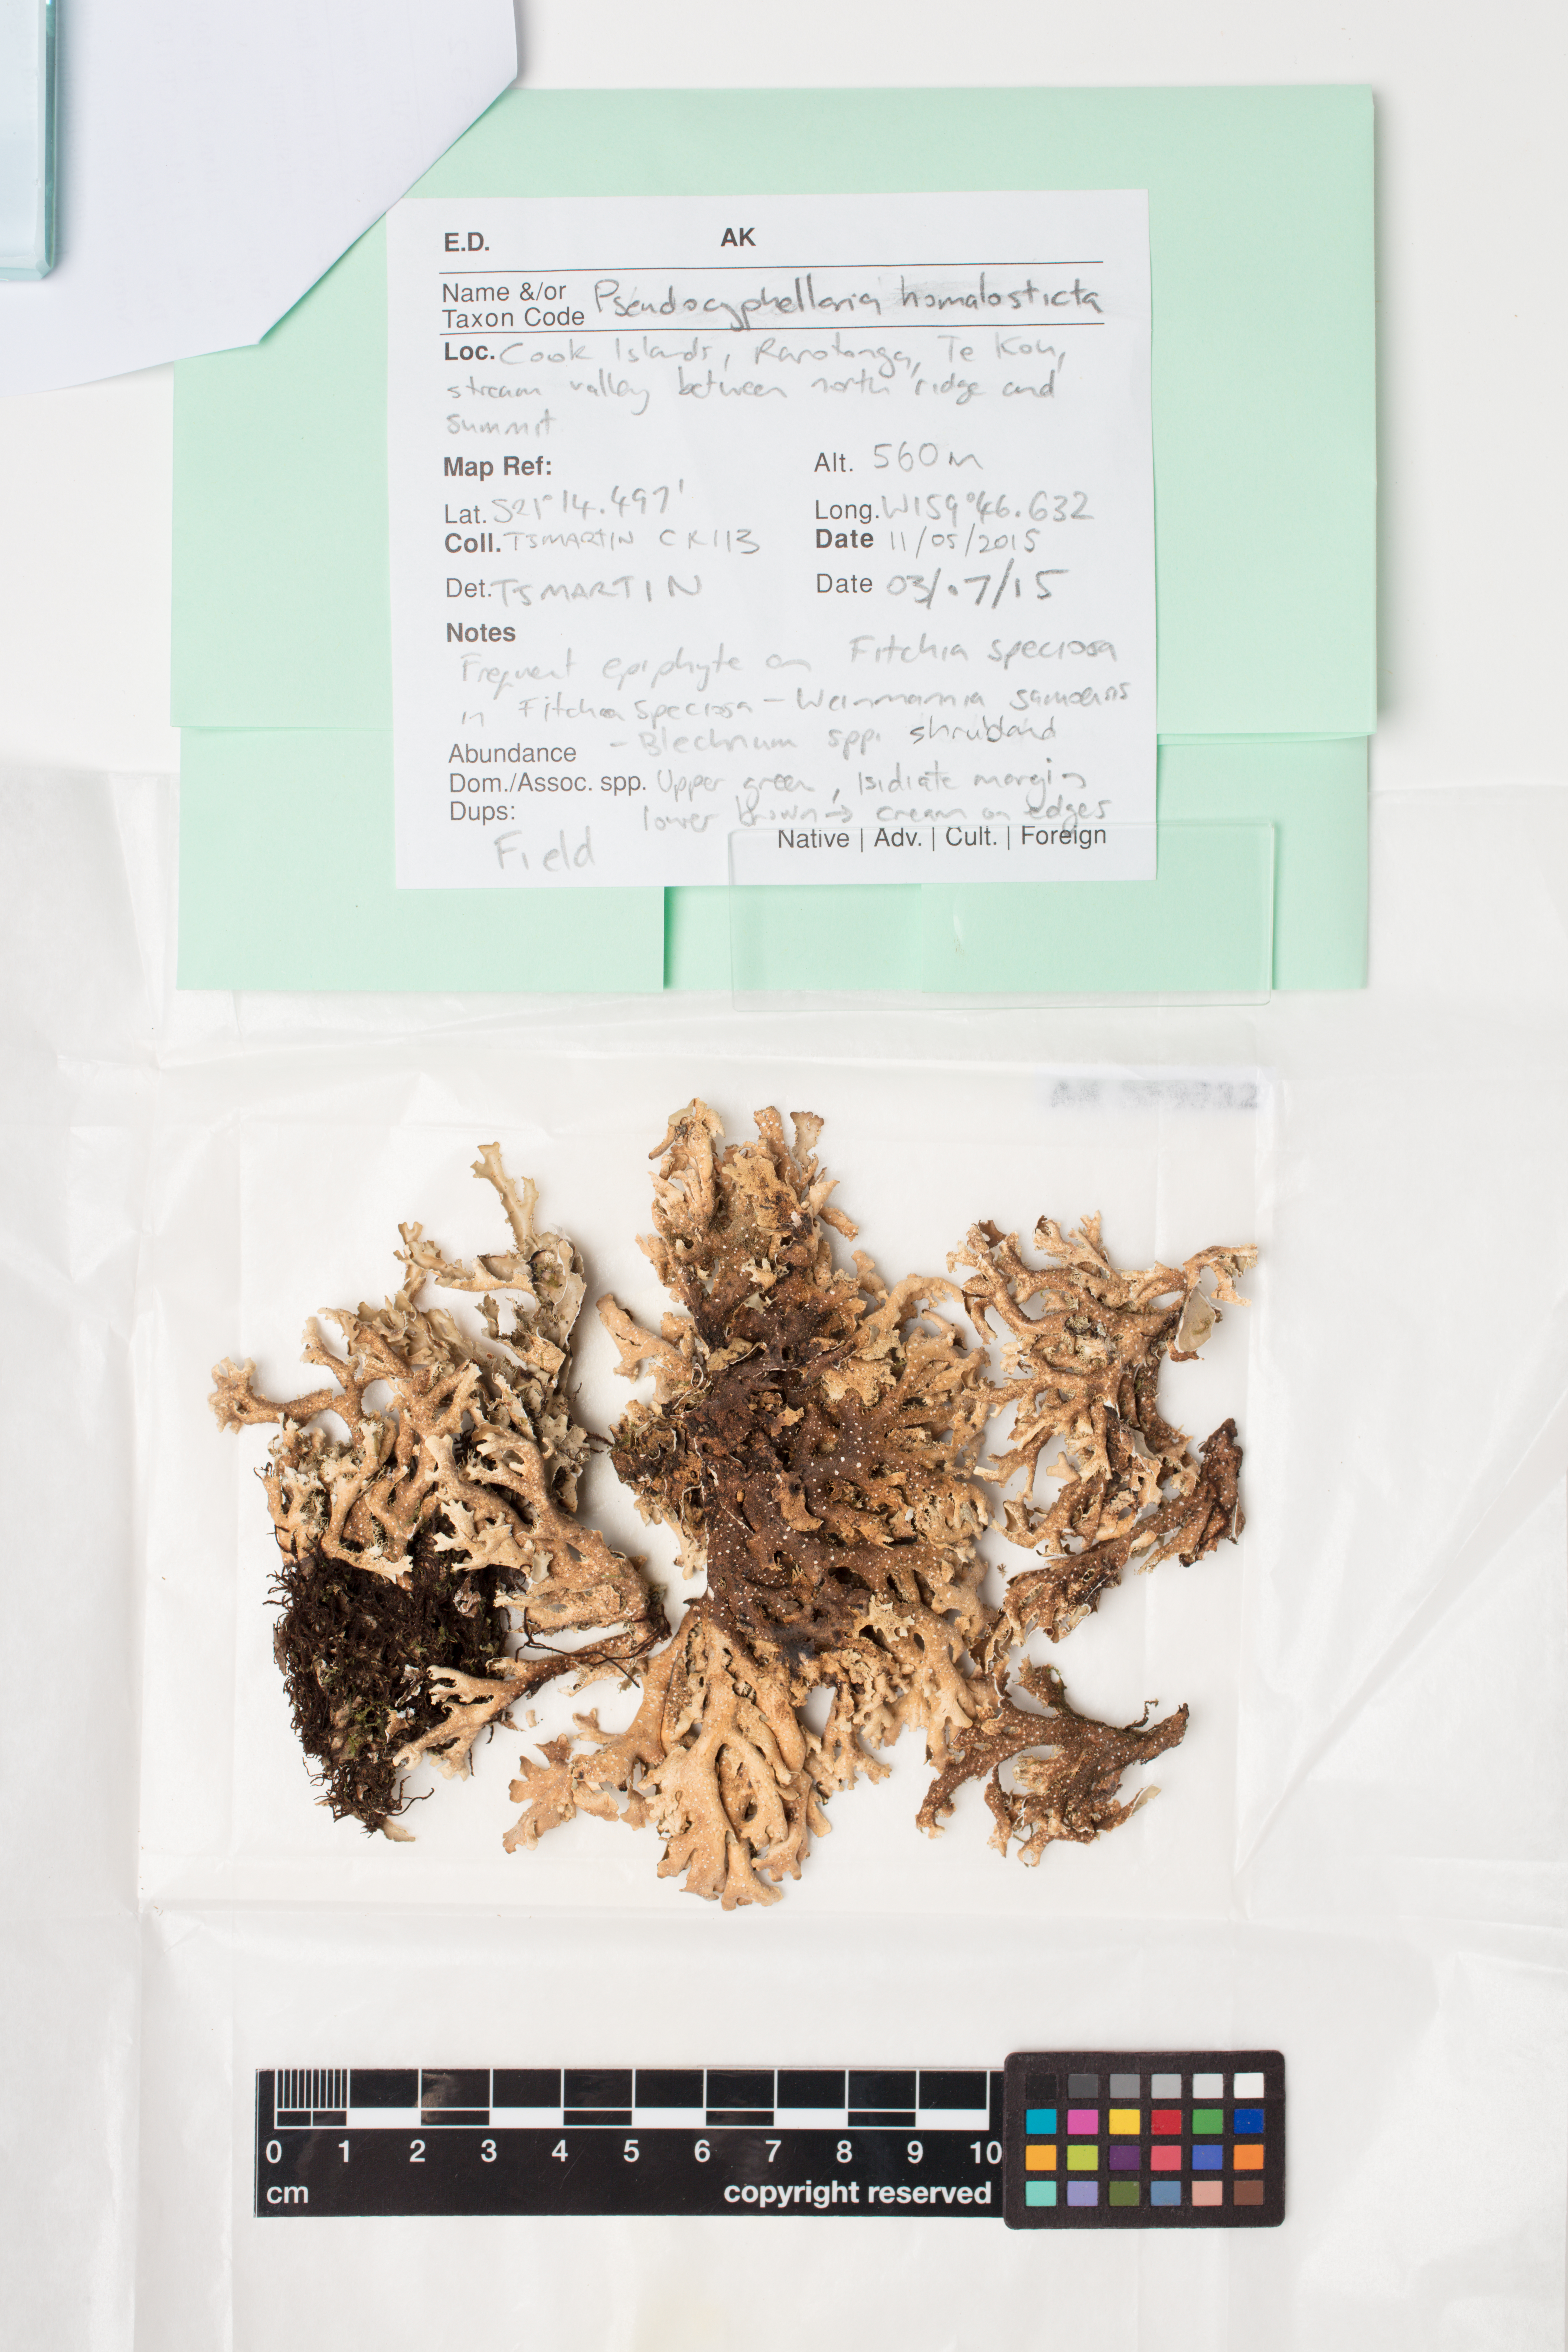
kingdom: Fungi
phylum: Ascomycota
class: Lecanoromycetes
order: Peltigerales
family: Lobariaceae
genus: Pseudocyphellaria
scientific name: Pseudocyphellaria homalosticta
